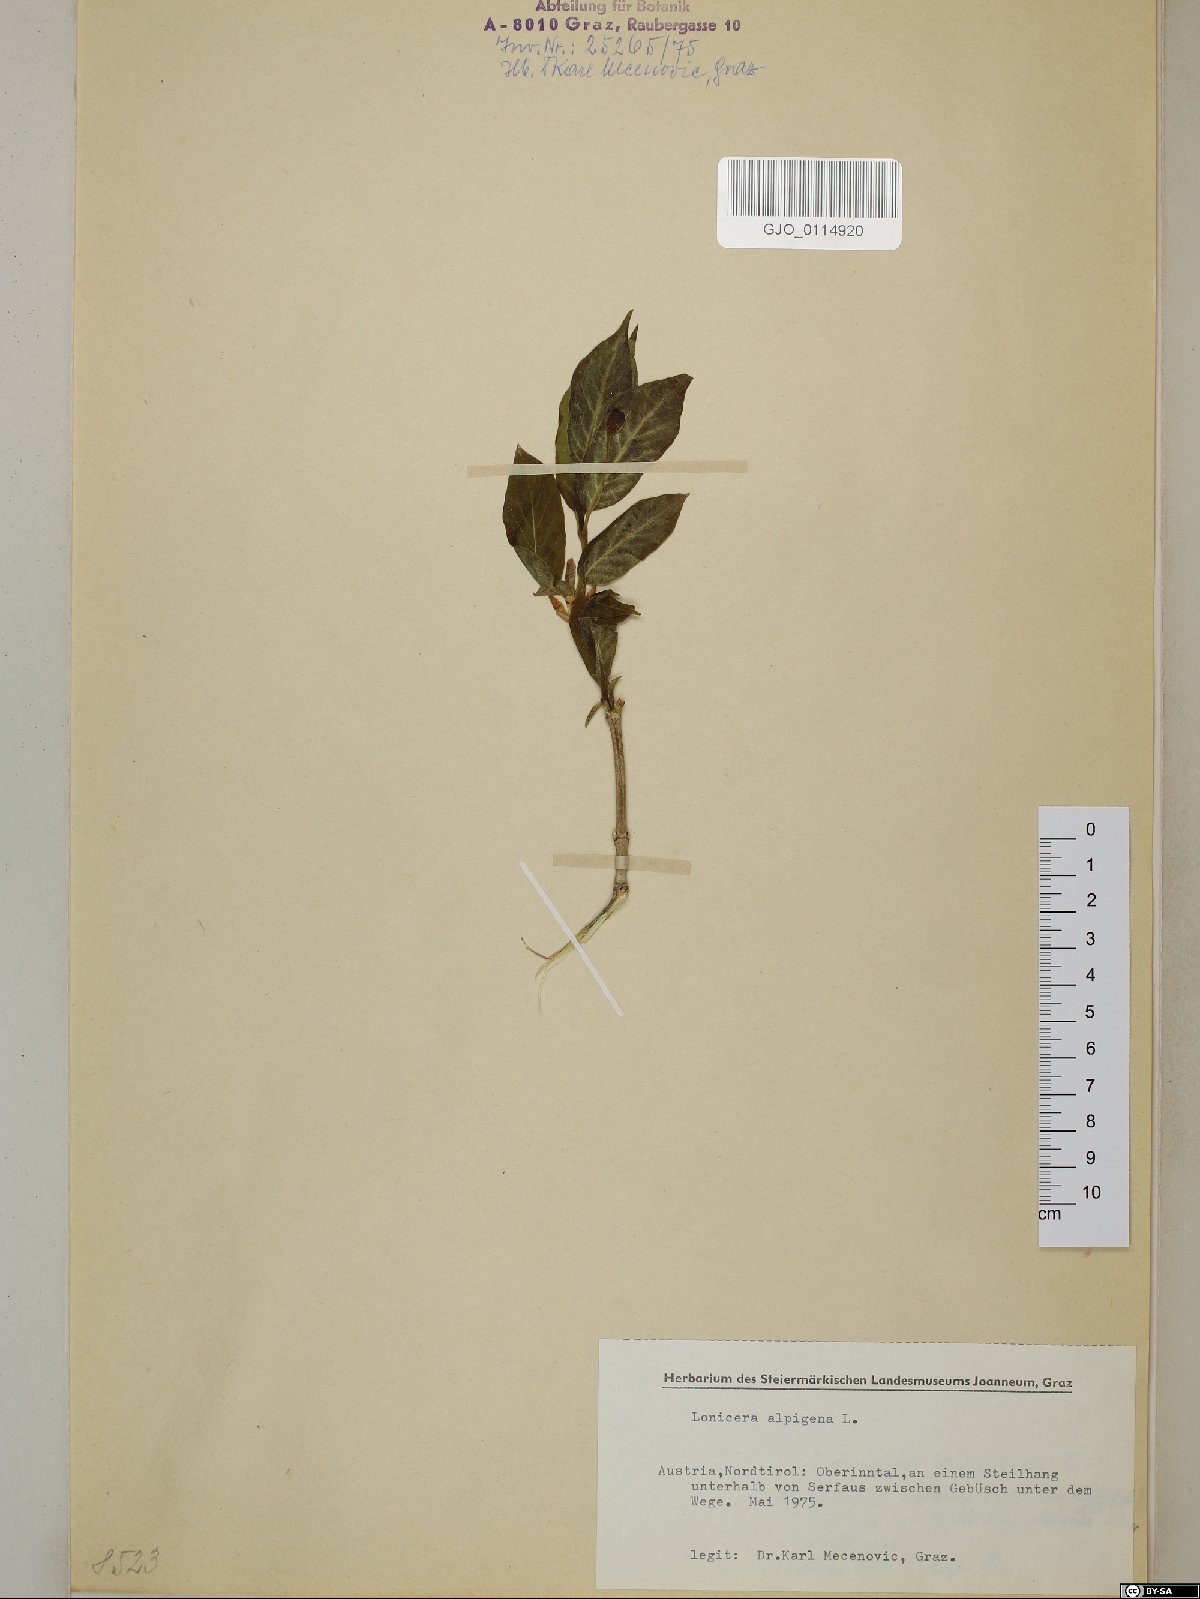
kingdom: Plantae
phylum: Tracheophyta
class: Magnoliopsida
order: Dipsacales
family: Caprifoliaceae
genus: Lonicera
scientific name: Lonicera alpigena
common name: Alpine honeysuckle
